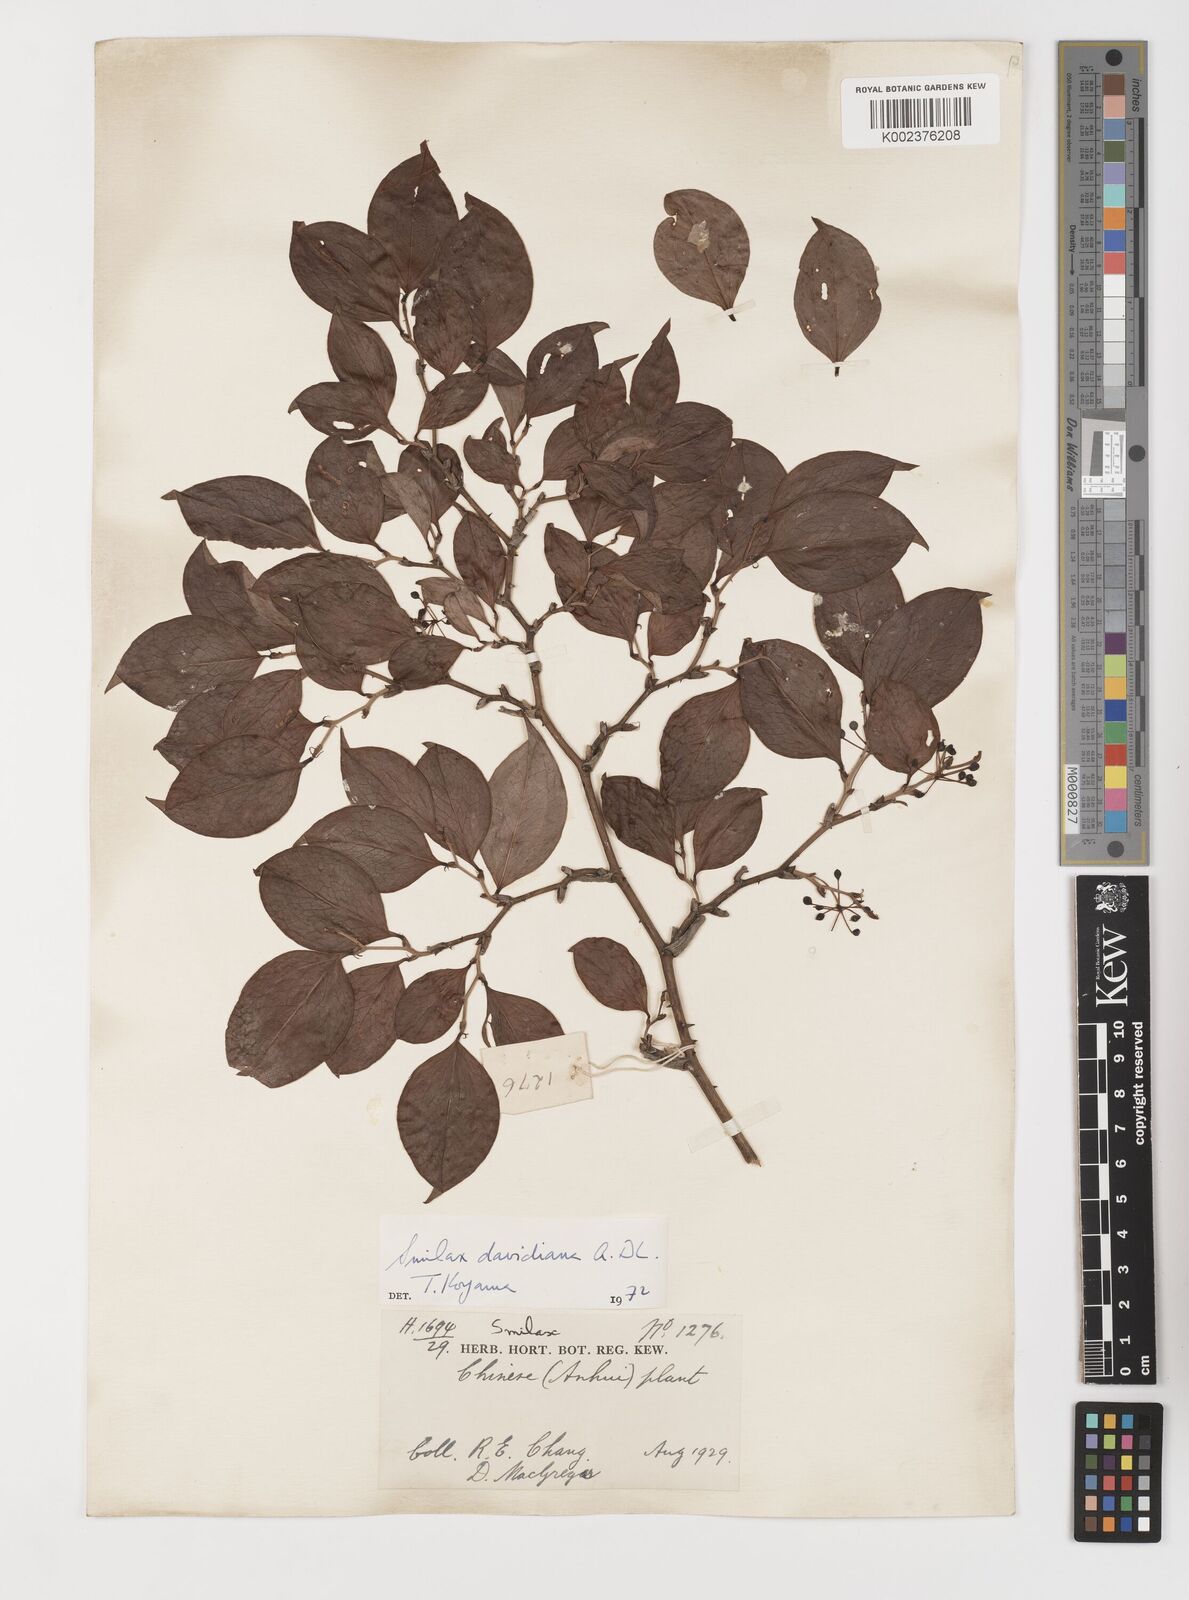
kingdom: Plantae
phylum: Tracheophyta
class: Liliopsida
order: Liliales
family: Smilacaceae
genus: Smilax
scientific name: Smilax davidiana
